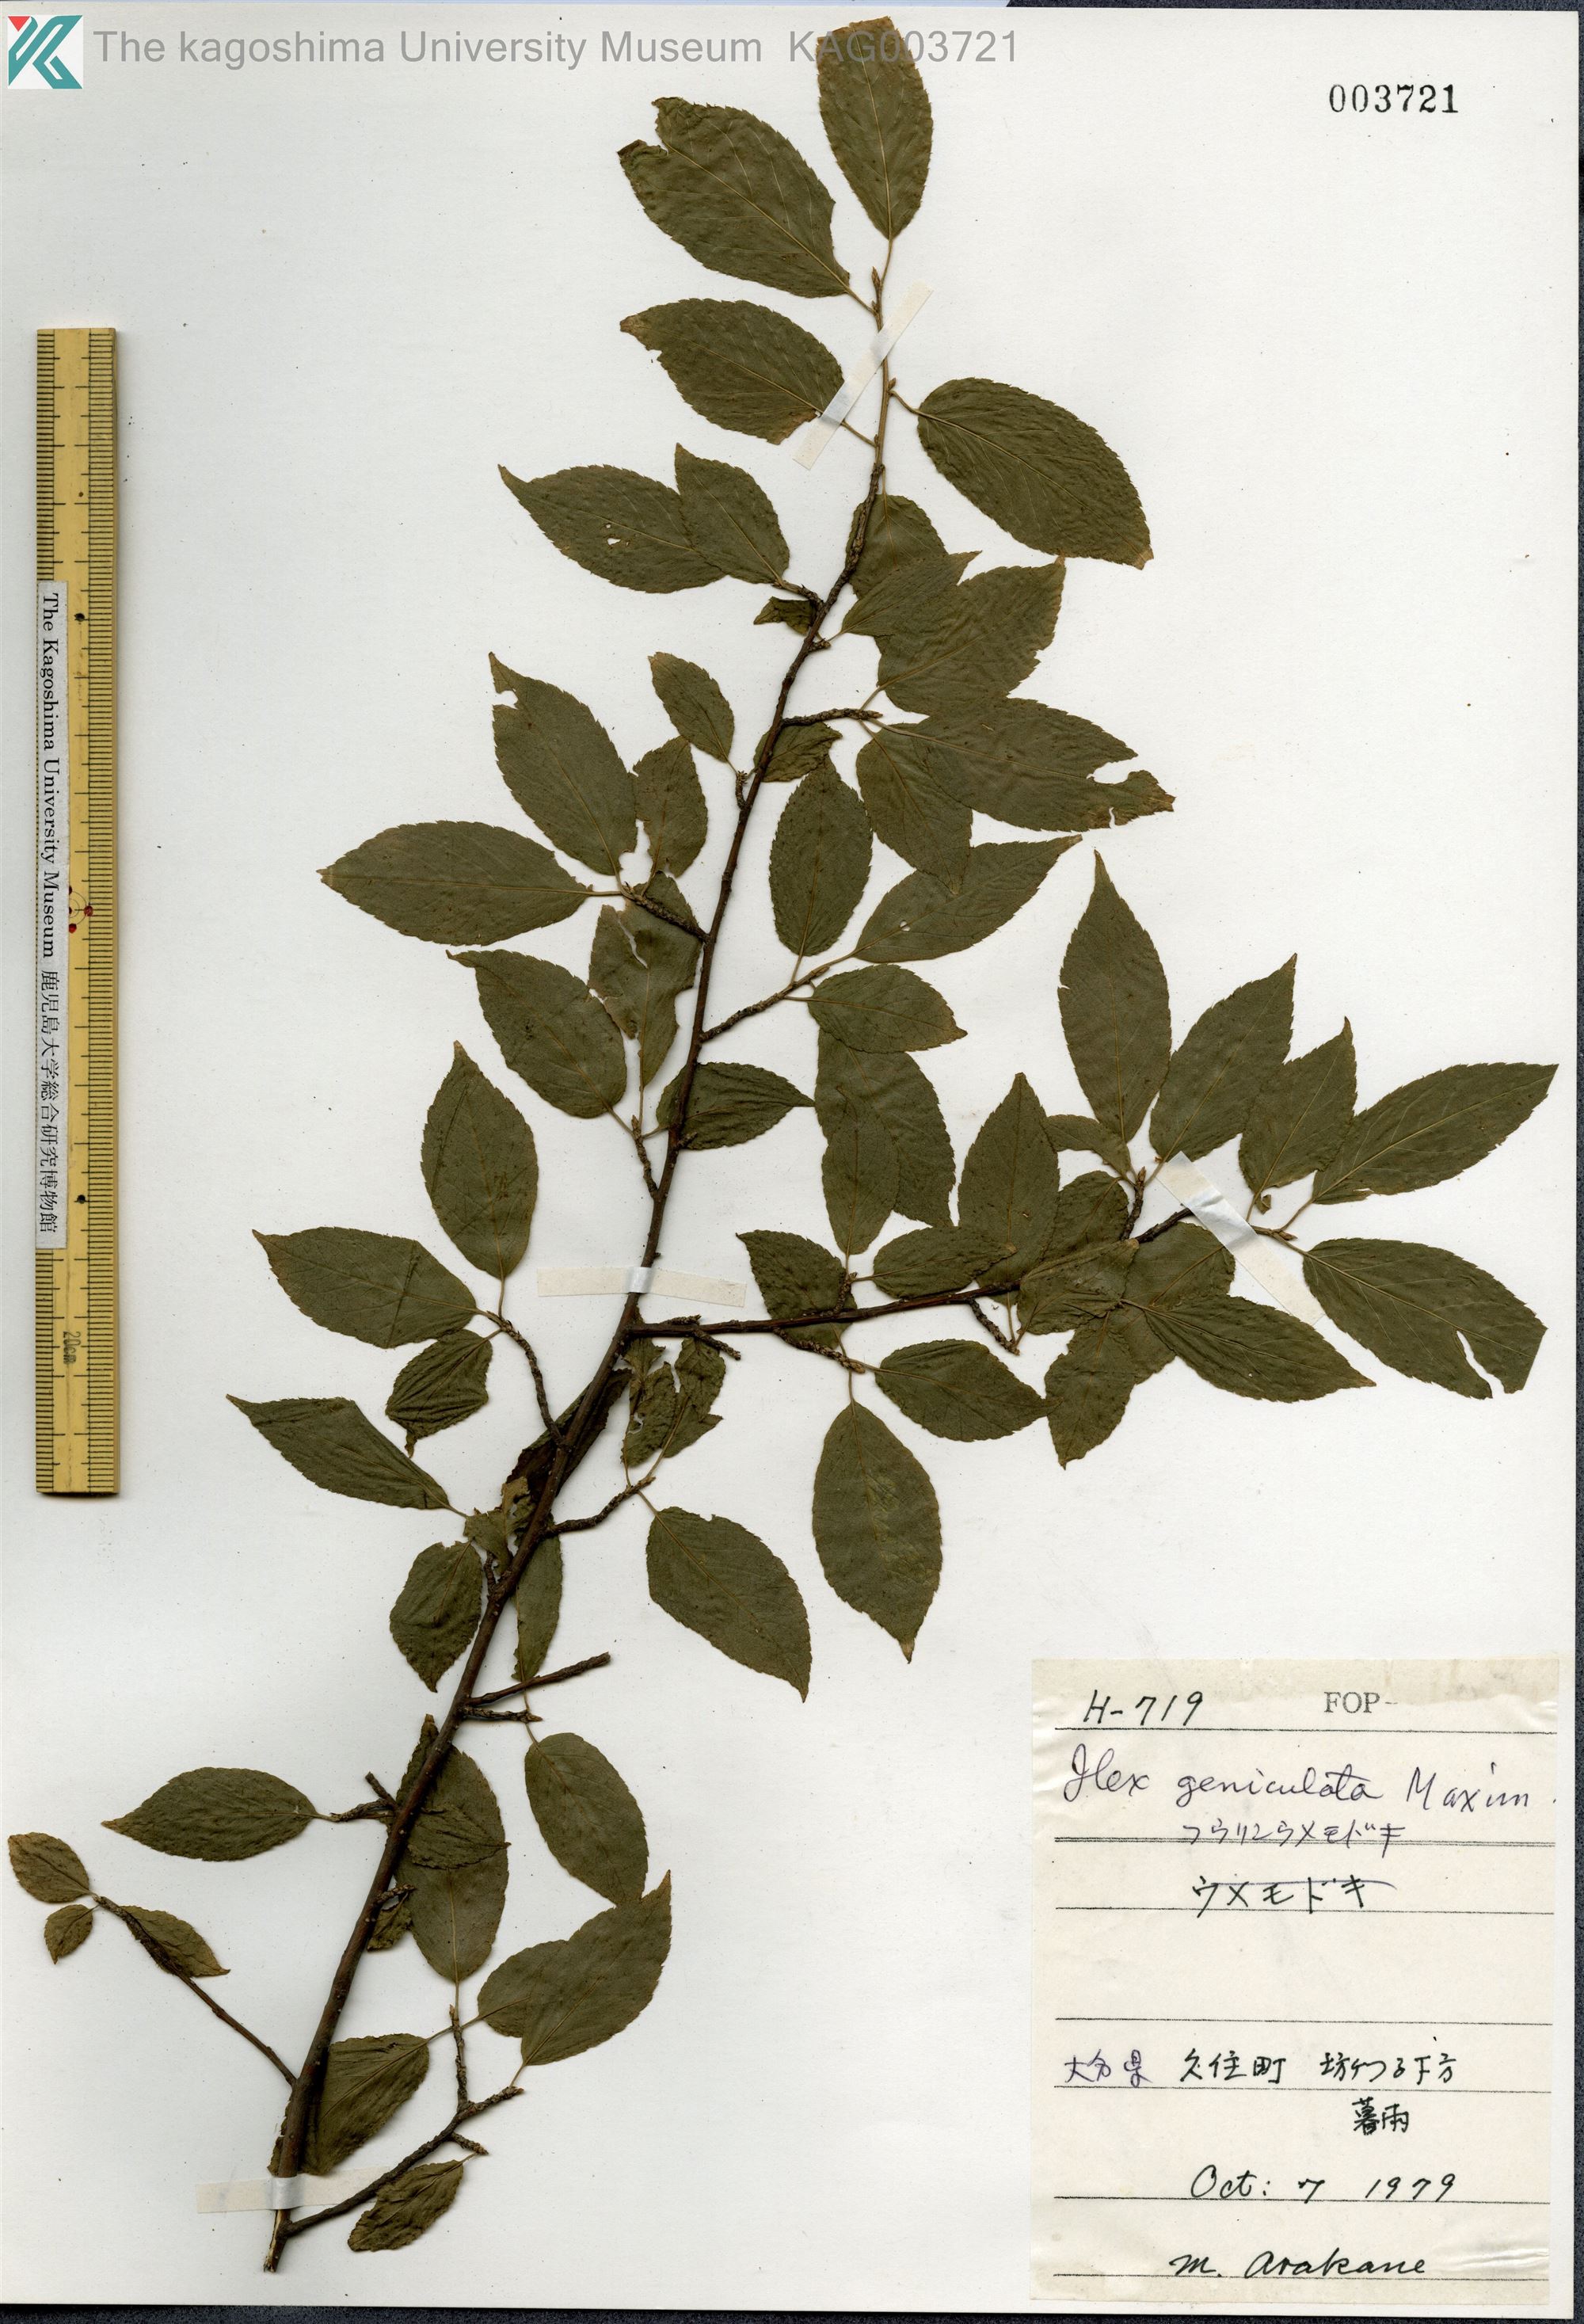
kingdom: Plantae
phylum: Tracheophyta
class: Magnoliopsida
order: Aquifoliales
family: Aquifoliaceae
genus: Ilex
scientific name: Ilex geniculata
